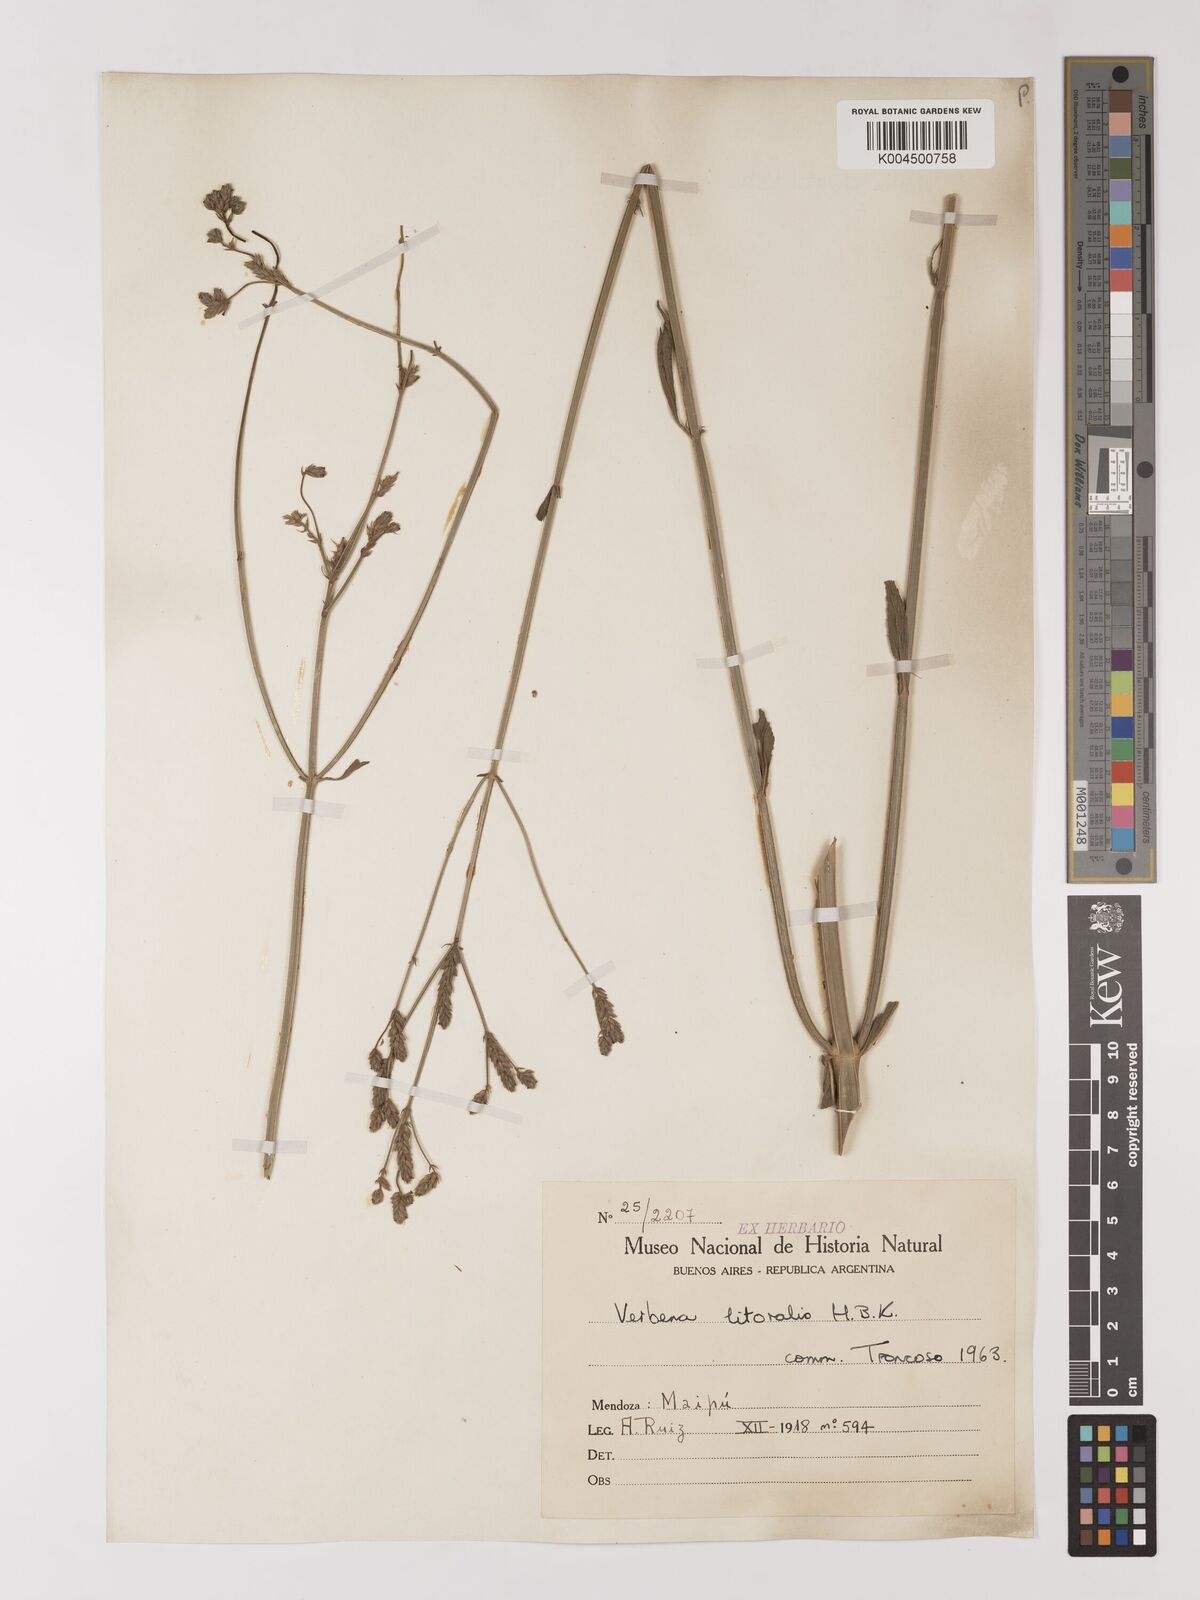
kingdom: Plantae
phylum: Tracheophyta
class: Magnoliopsida
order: Lamiales
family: Verbenaceae
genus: Verbena
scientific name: Verbena litoralis
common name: Seashore vervain
